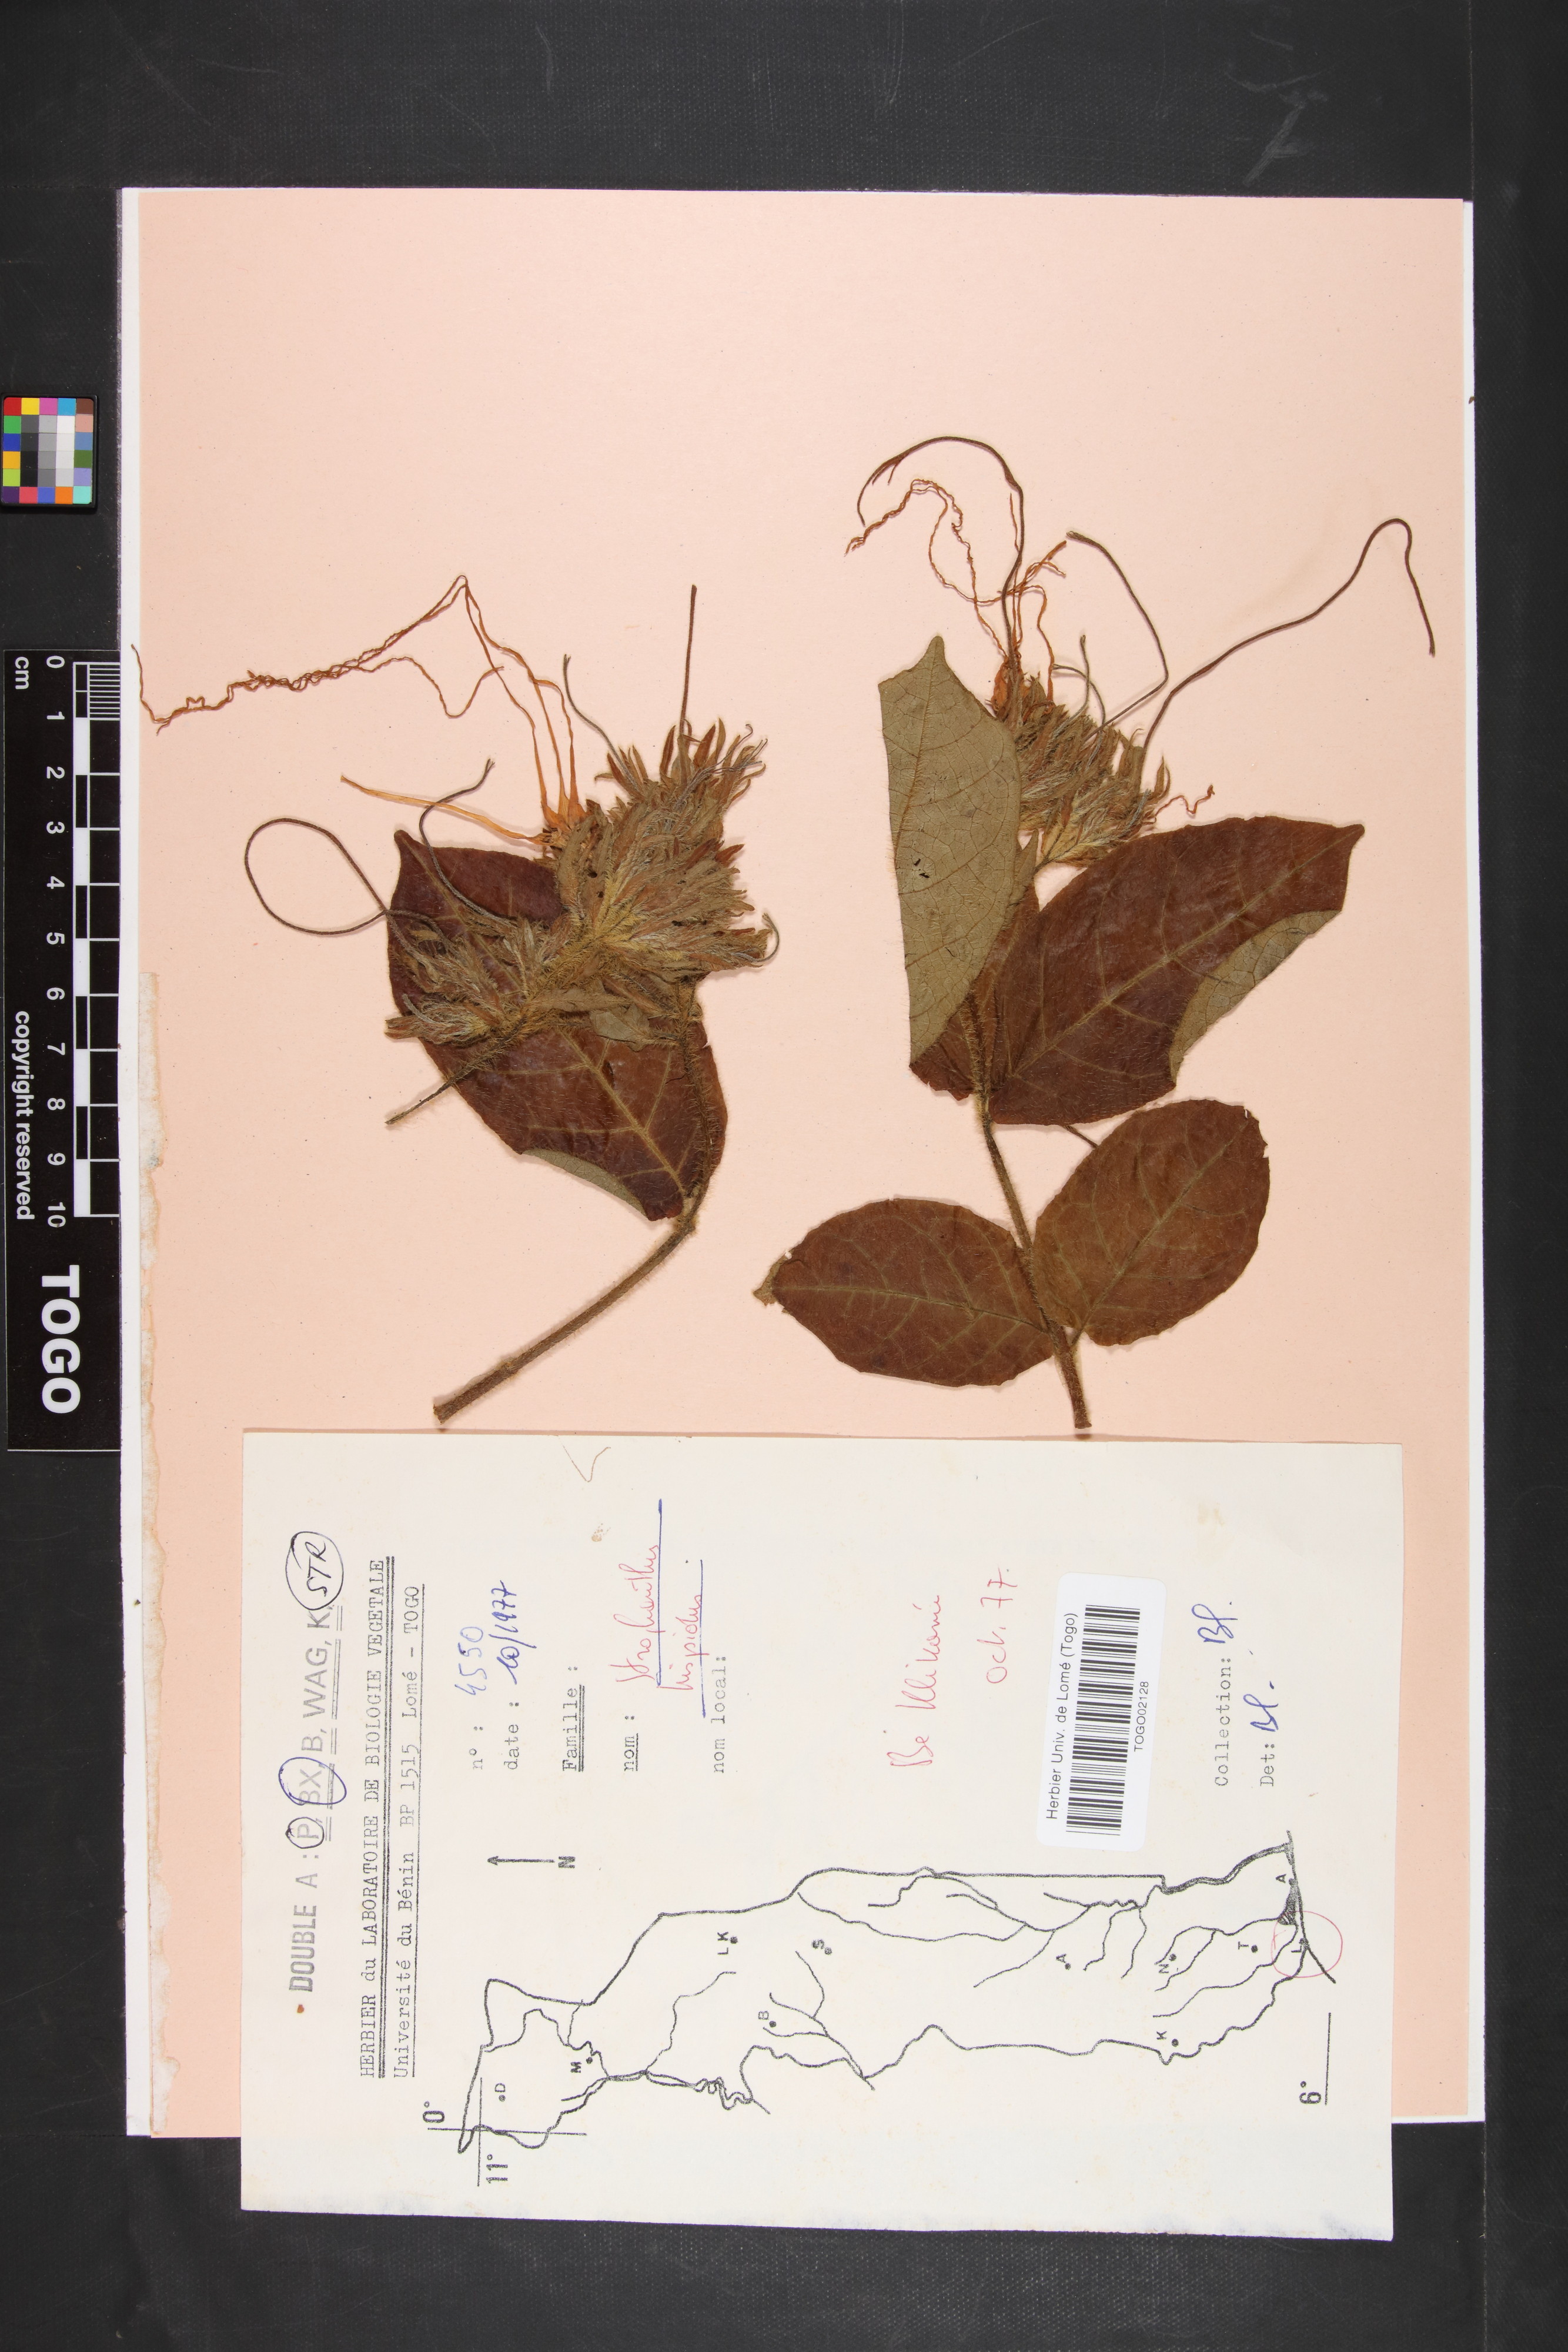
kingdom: Plantae
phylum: Tracheophyta
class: Magnoliopsida
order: Gentianales
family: Apocynaceae
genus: Strophanthus
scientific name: Strophanthus hispidus
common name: Hairy strophanthus
